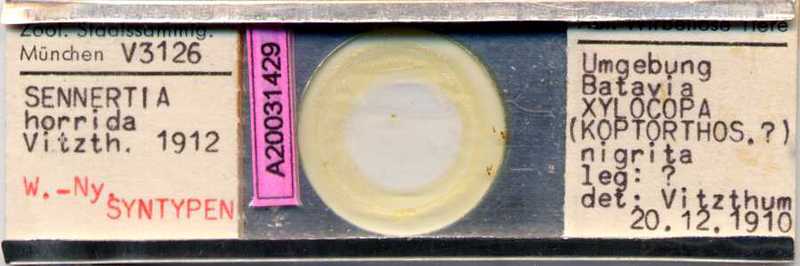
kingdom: Animalia
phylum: Arthropoda
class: Arachnida
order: Sarcoptiformes
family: Chaetodactylidae
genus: Sennertia
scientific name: Sennertia horrida
